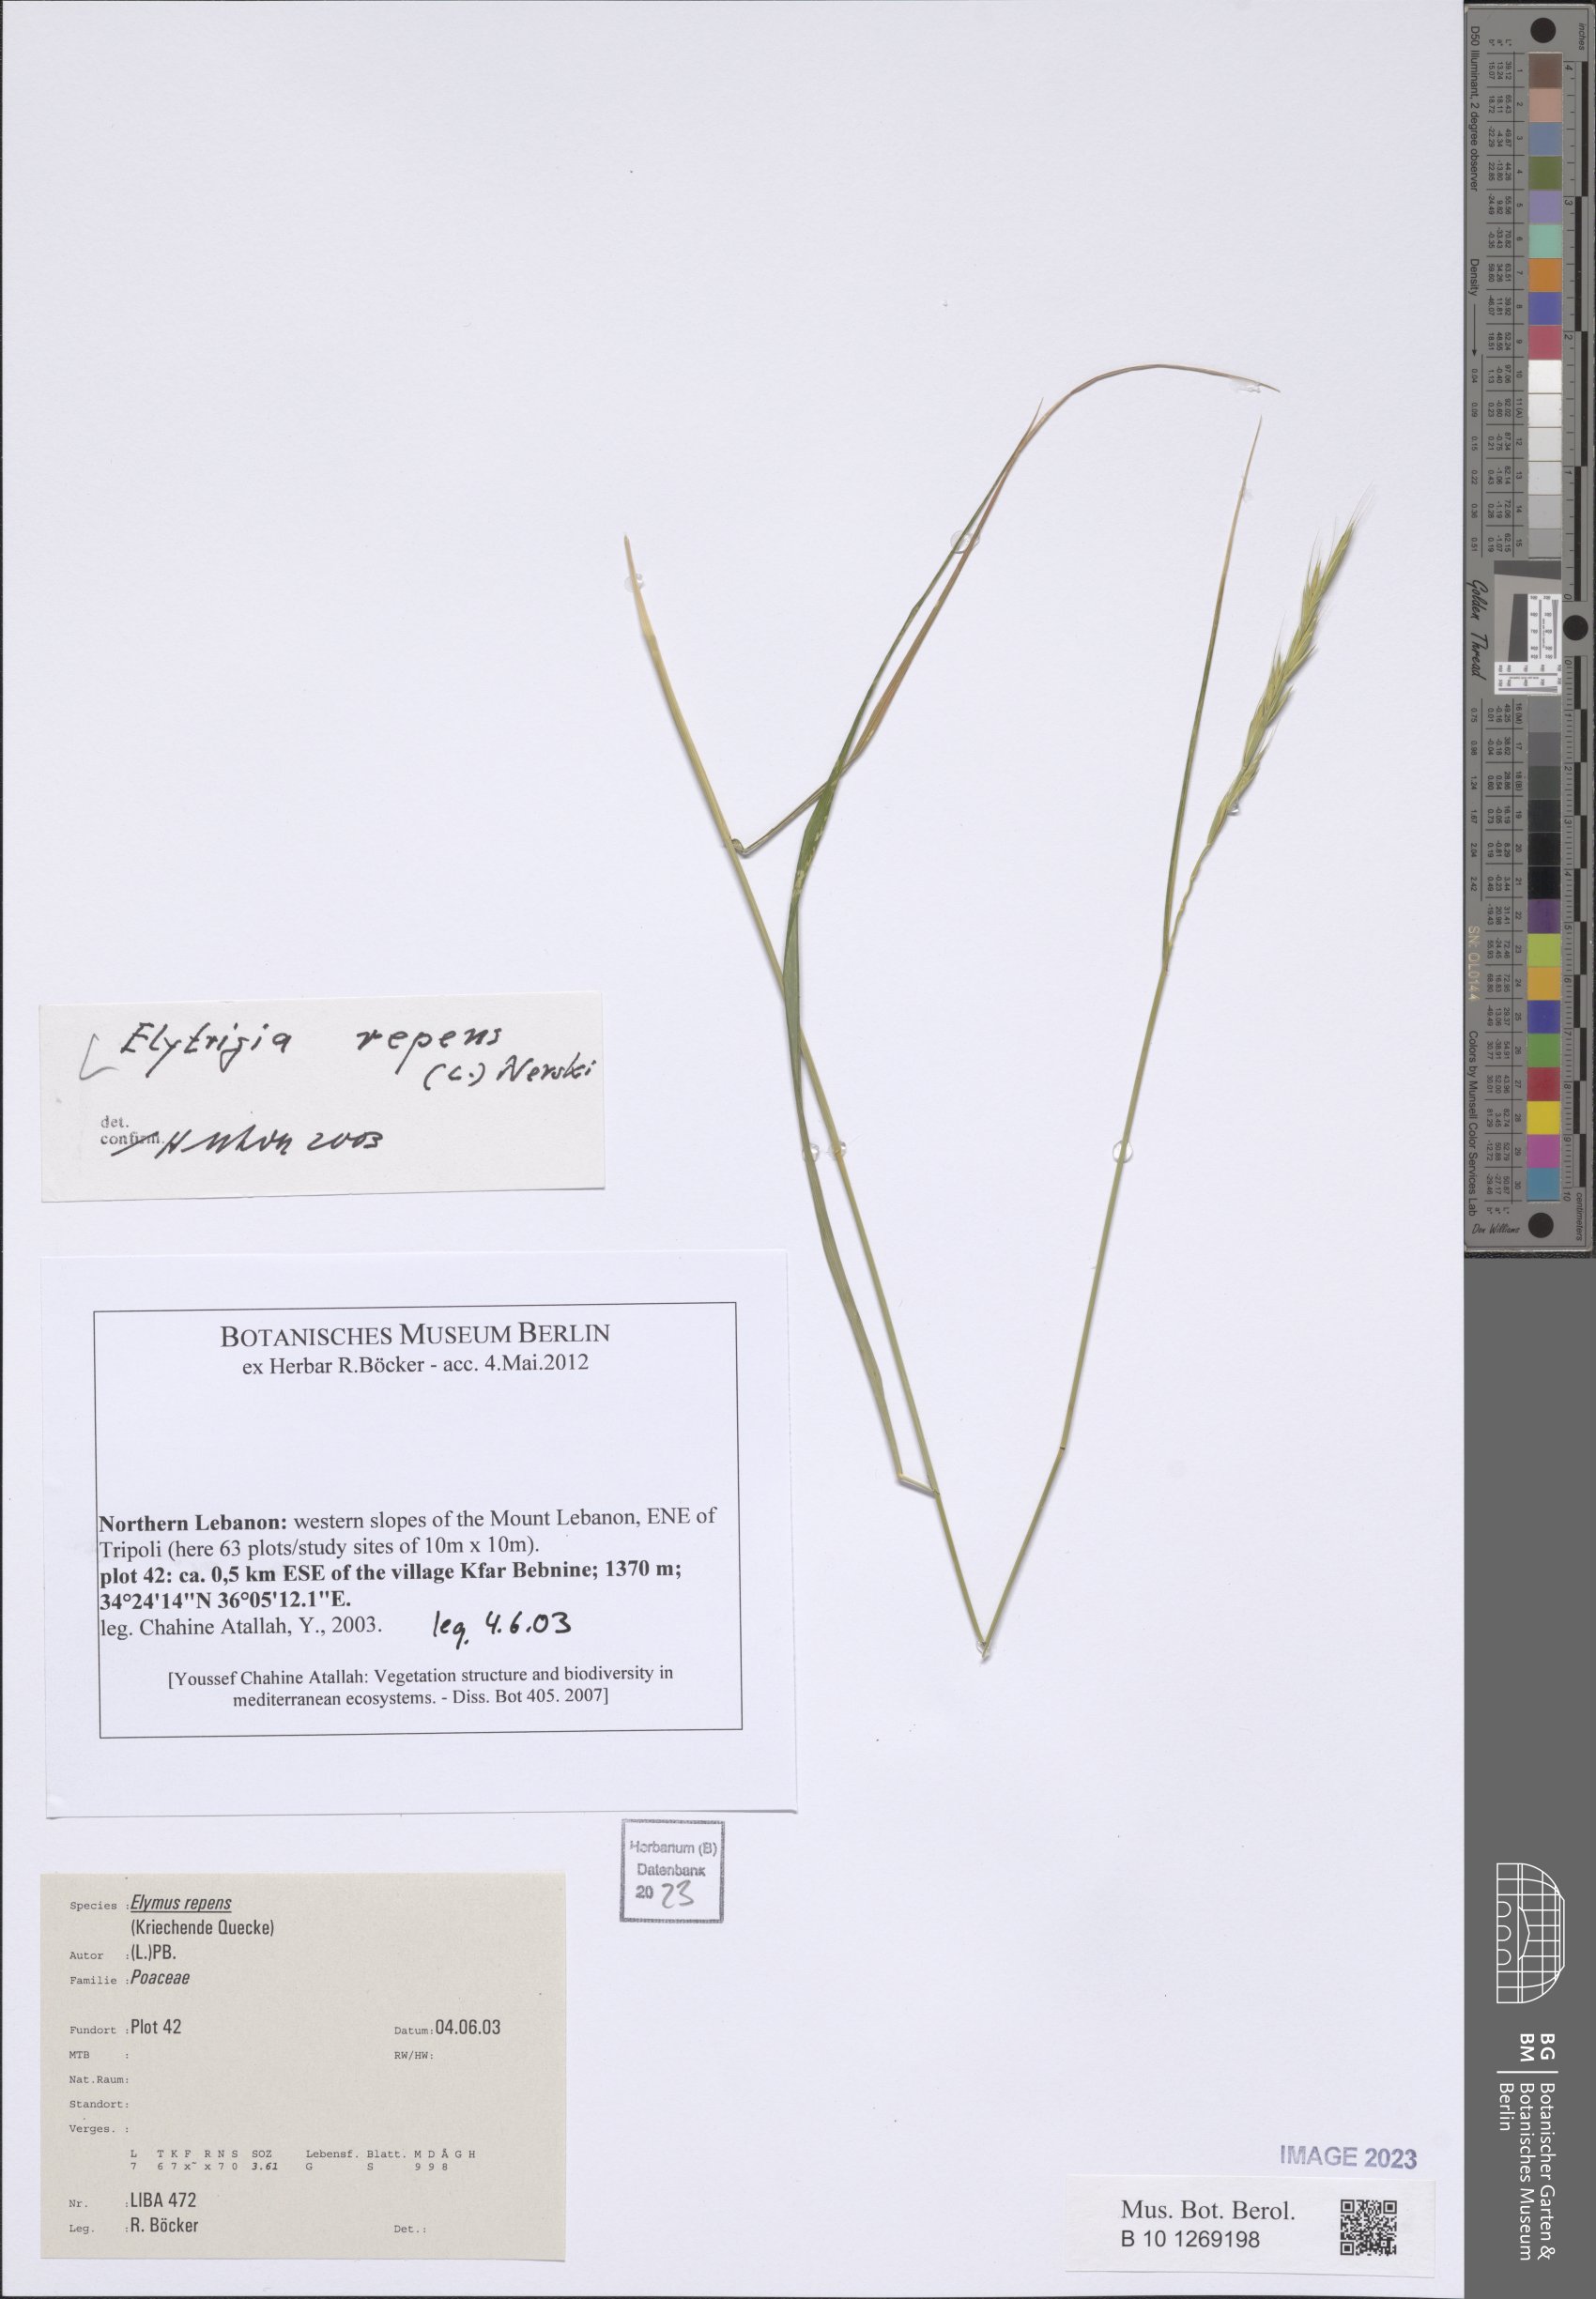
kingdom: Plantae
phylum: Tracheophyta
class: Liliopsida
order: Poales
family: Poaceae
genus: Elymus
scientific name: Elymus repens
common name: Quackgrass
